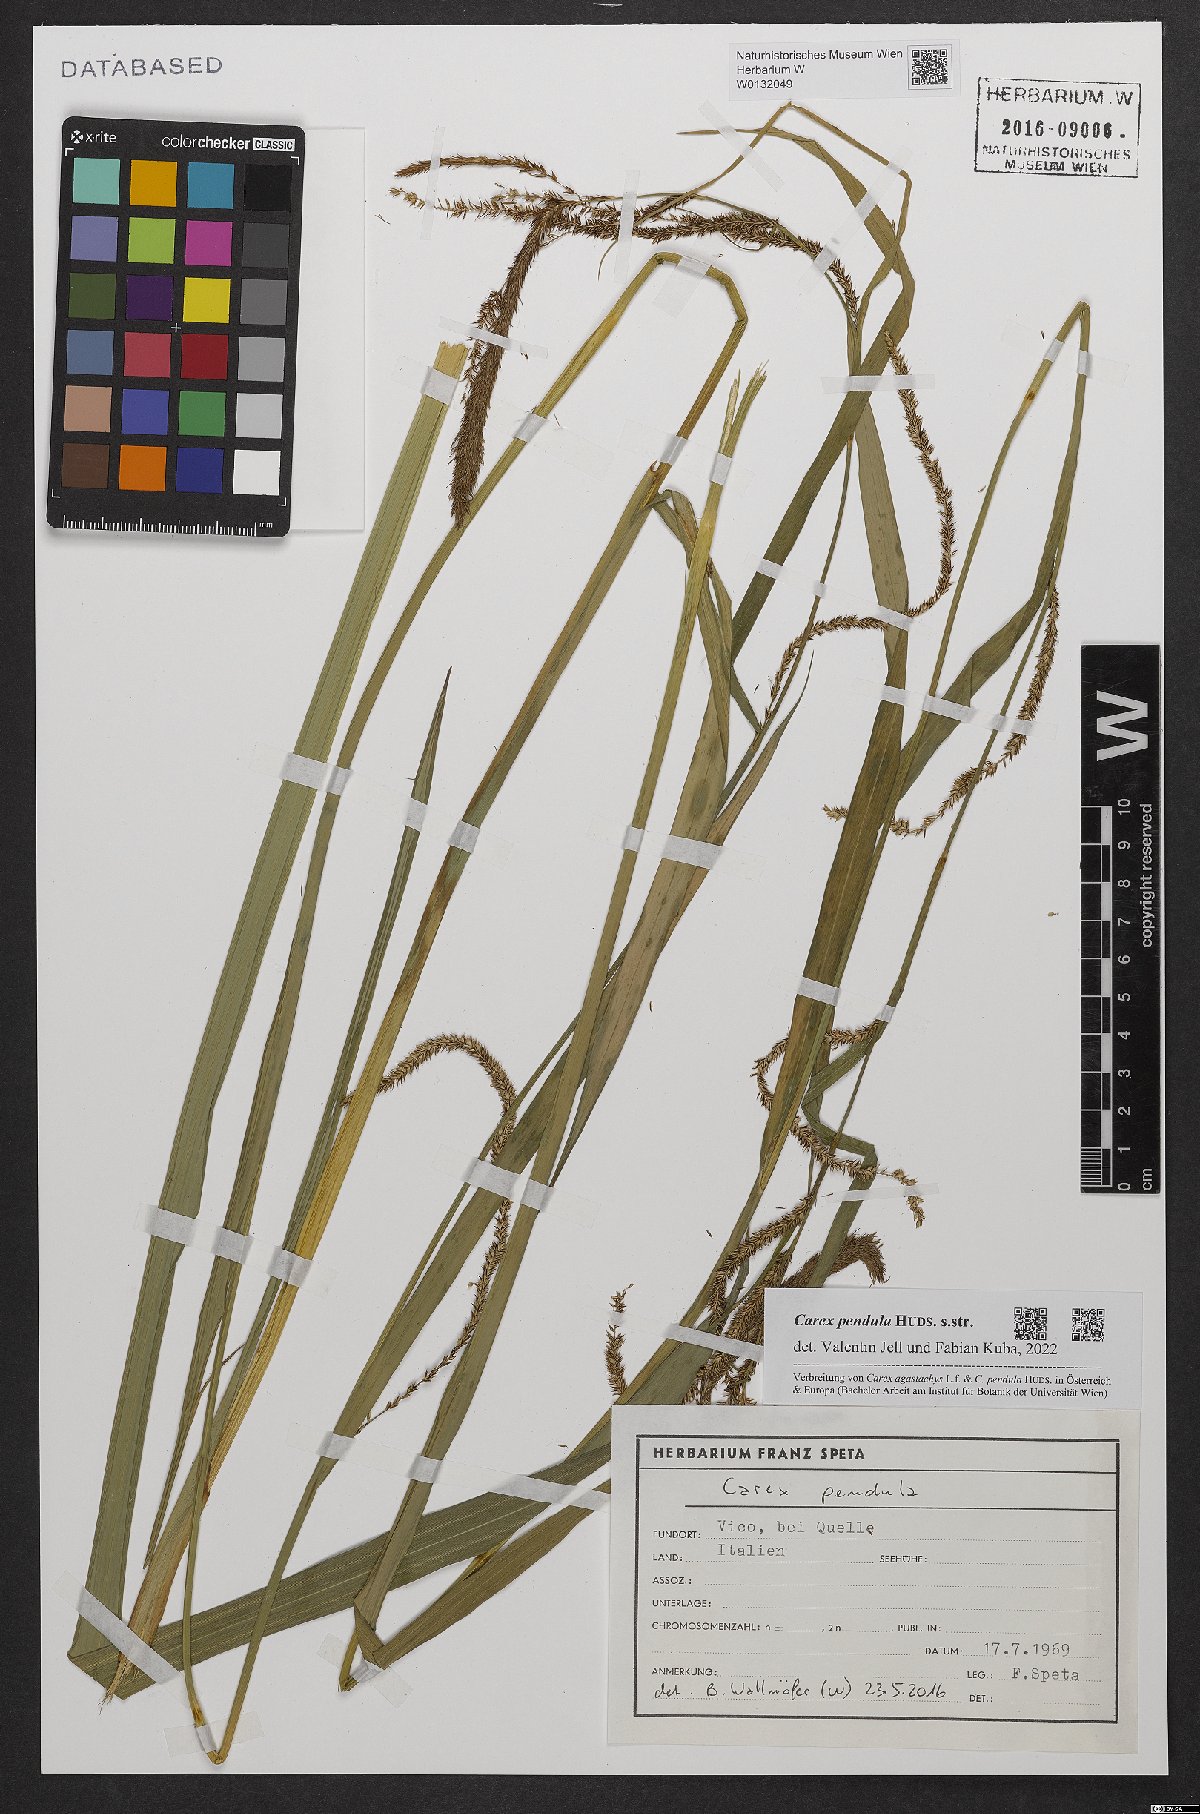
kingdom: Plantae
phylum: Tracheophyta
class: Liliopsida
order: Poales
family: Cyperaceae
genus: Carex
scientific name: Carex pendula
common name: Pendulous sedge
